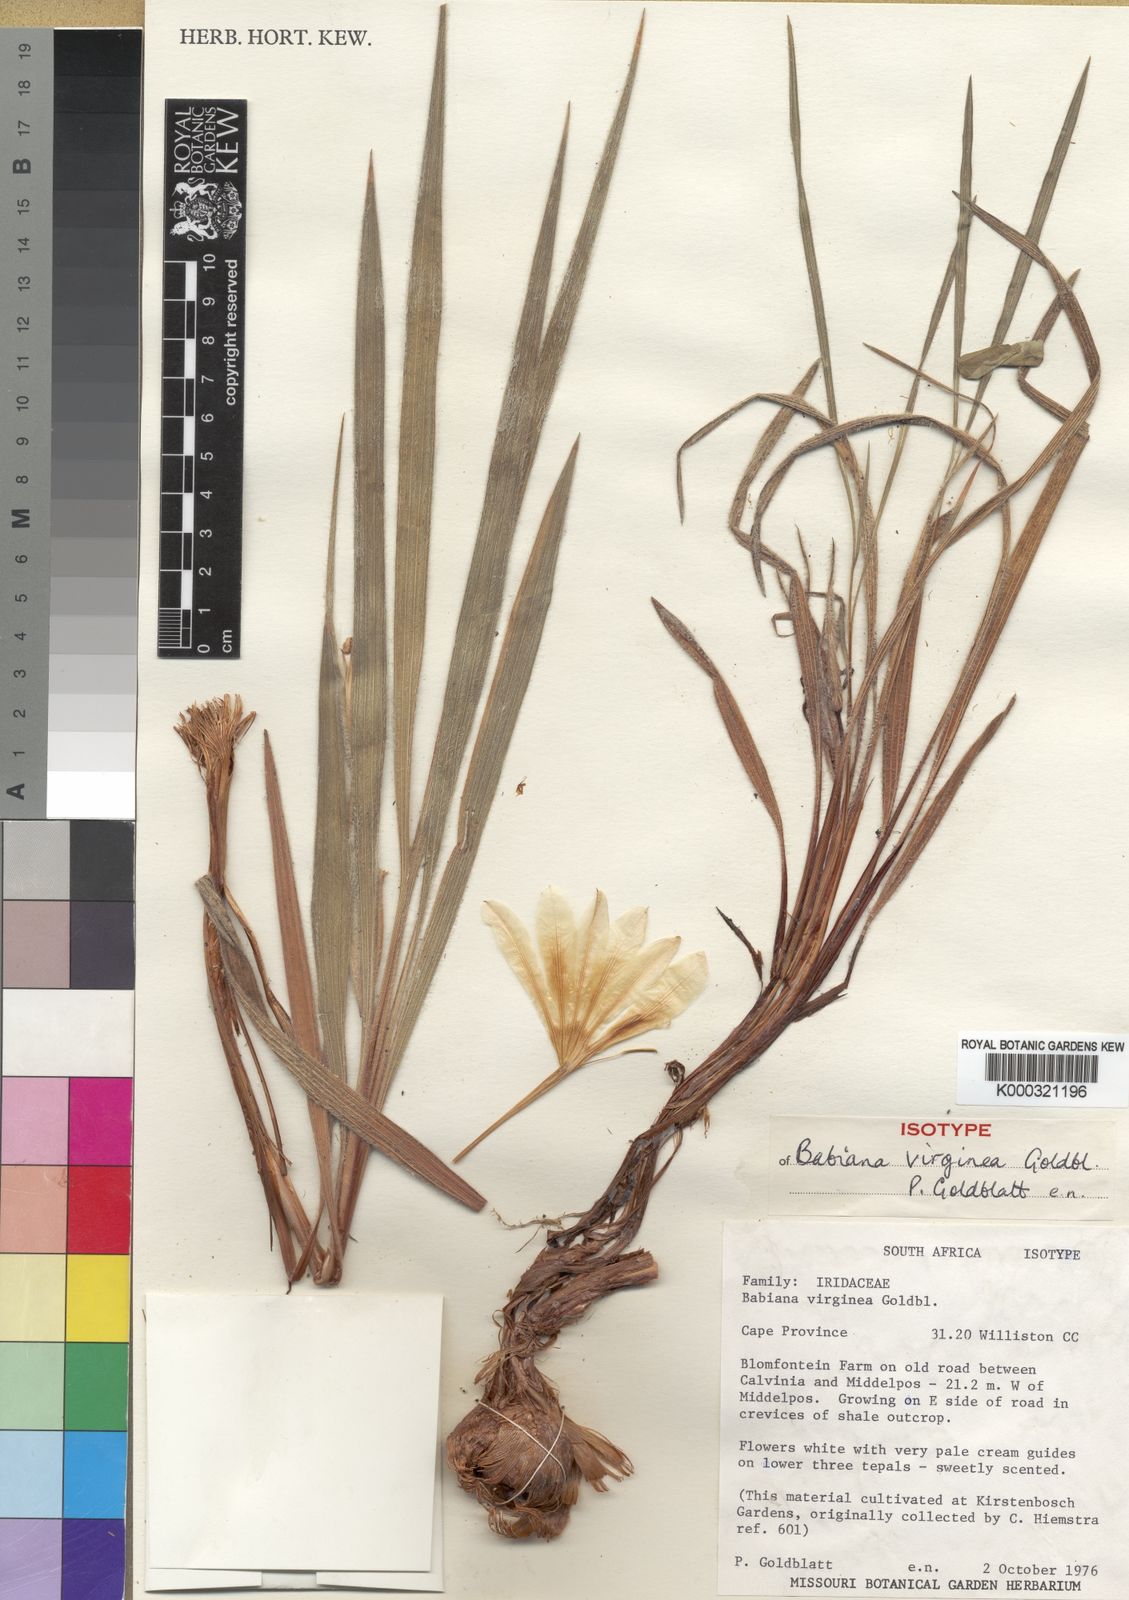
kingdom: Plantae
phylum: Tracheophyta
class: Liliopsida
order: Asparagales
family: Iridaceae
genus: Babiana
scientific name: Babiana virginea
